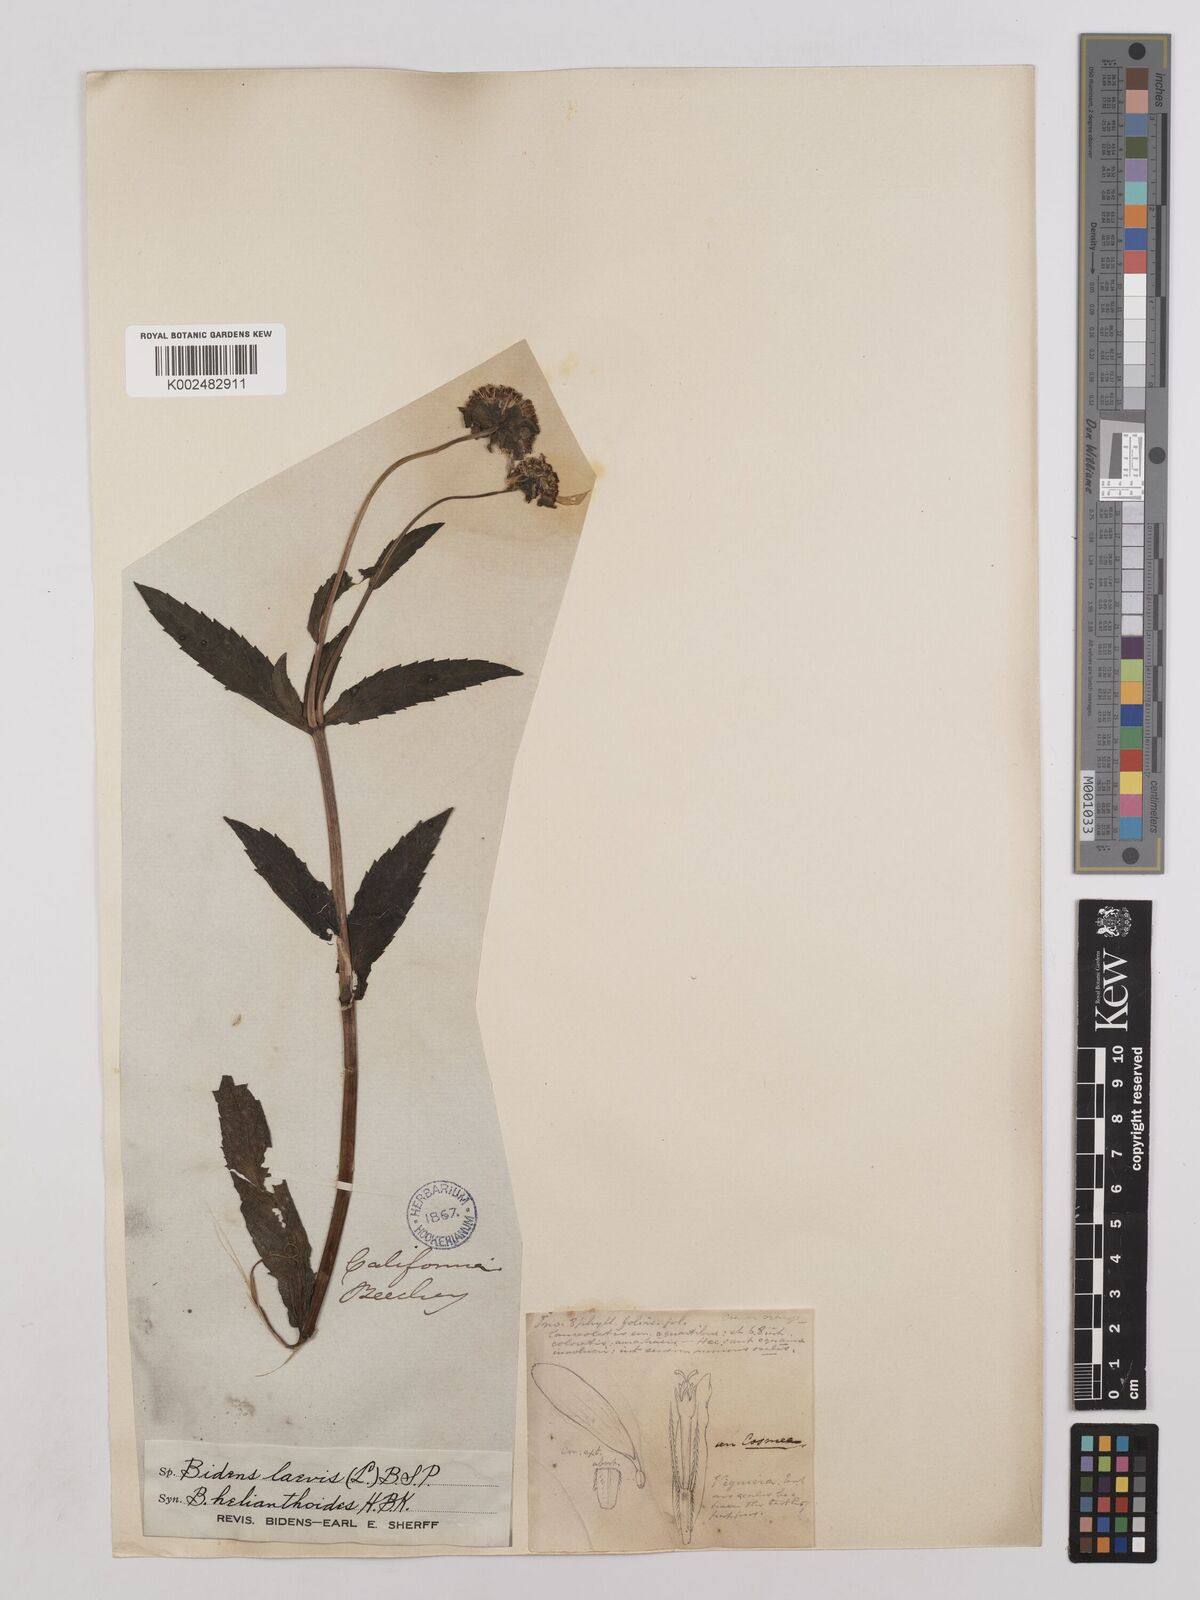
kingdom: Plantae
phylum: Tracheophyta
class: Magnoliopsida
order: Asterales
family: Asteraceae
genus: Bidens
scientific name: Bidens laevis
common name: Larger bur-marigold
